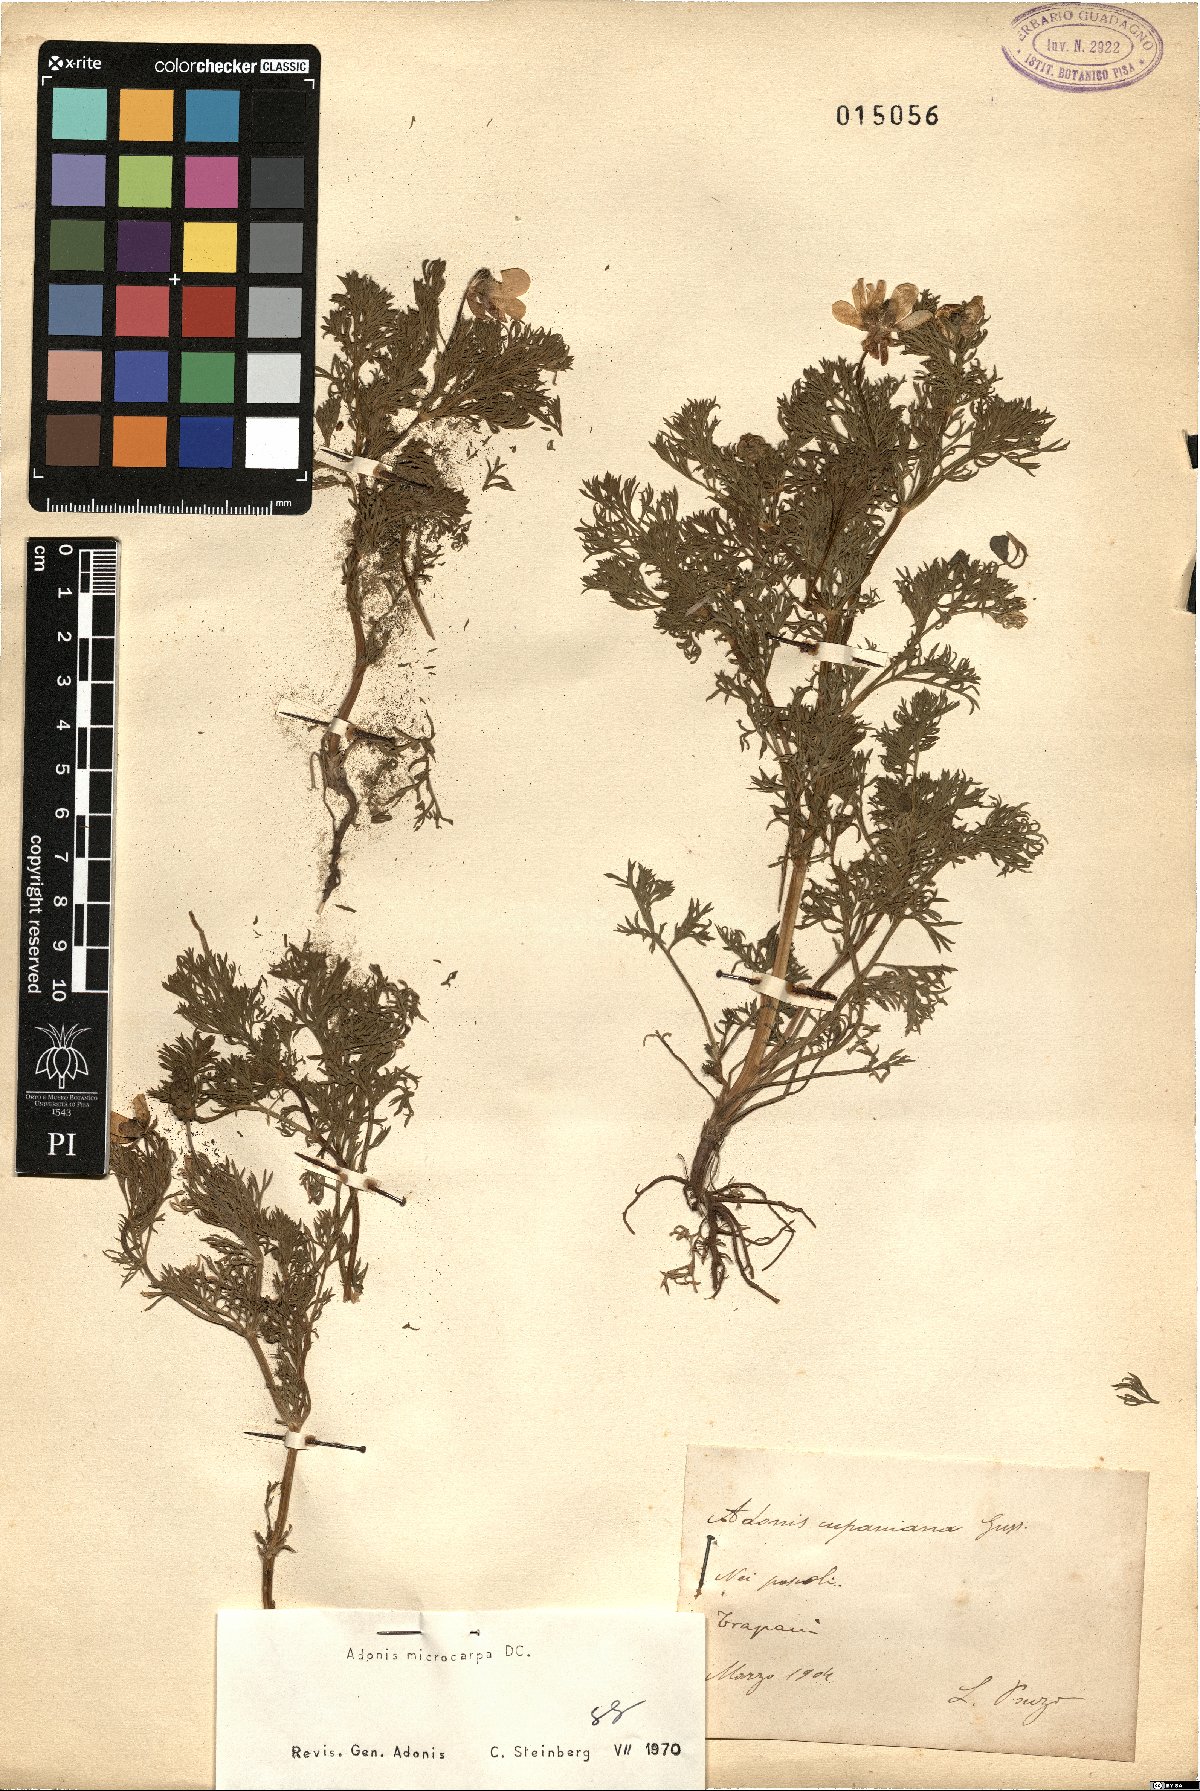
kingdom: Plantae
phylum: Tracheophyta
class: Magnoliopsida
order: Ranunculales
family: Ranunculaceae
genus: Adonis
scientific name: Adonis microcarpa
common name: Pheasant's-eye
